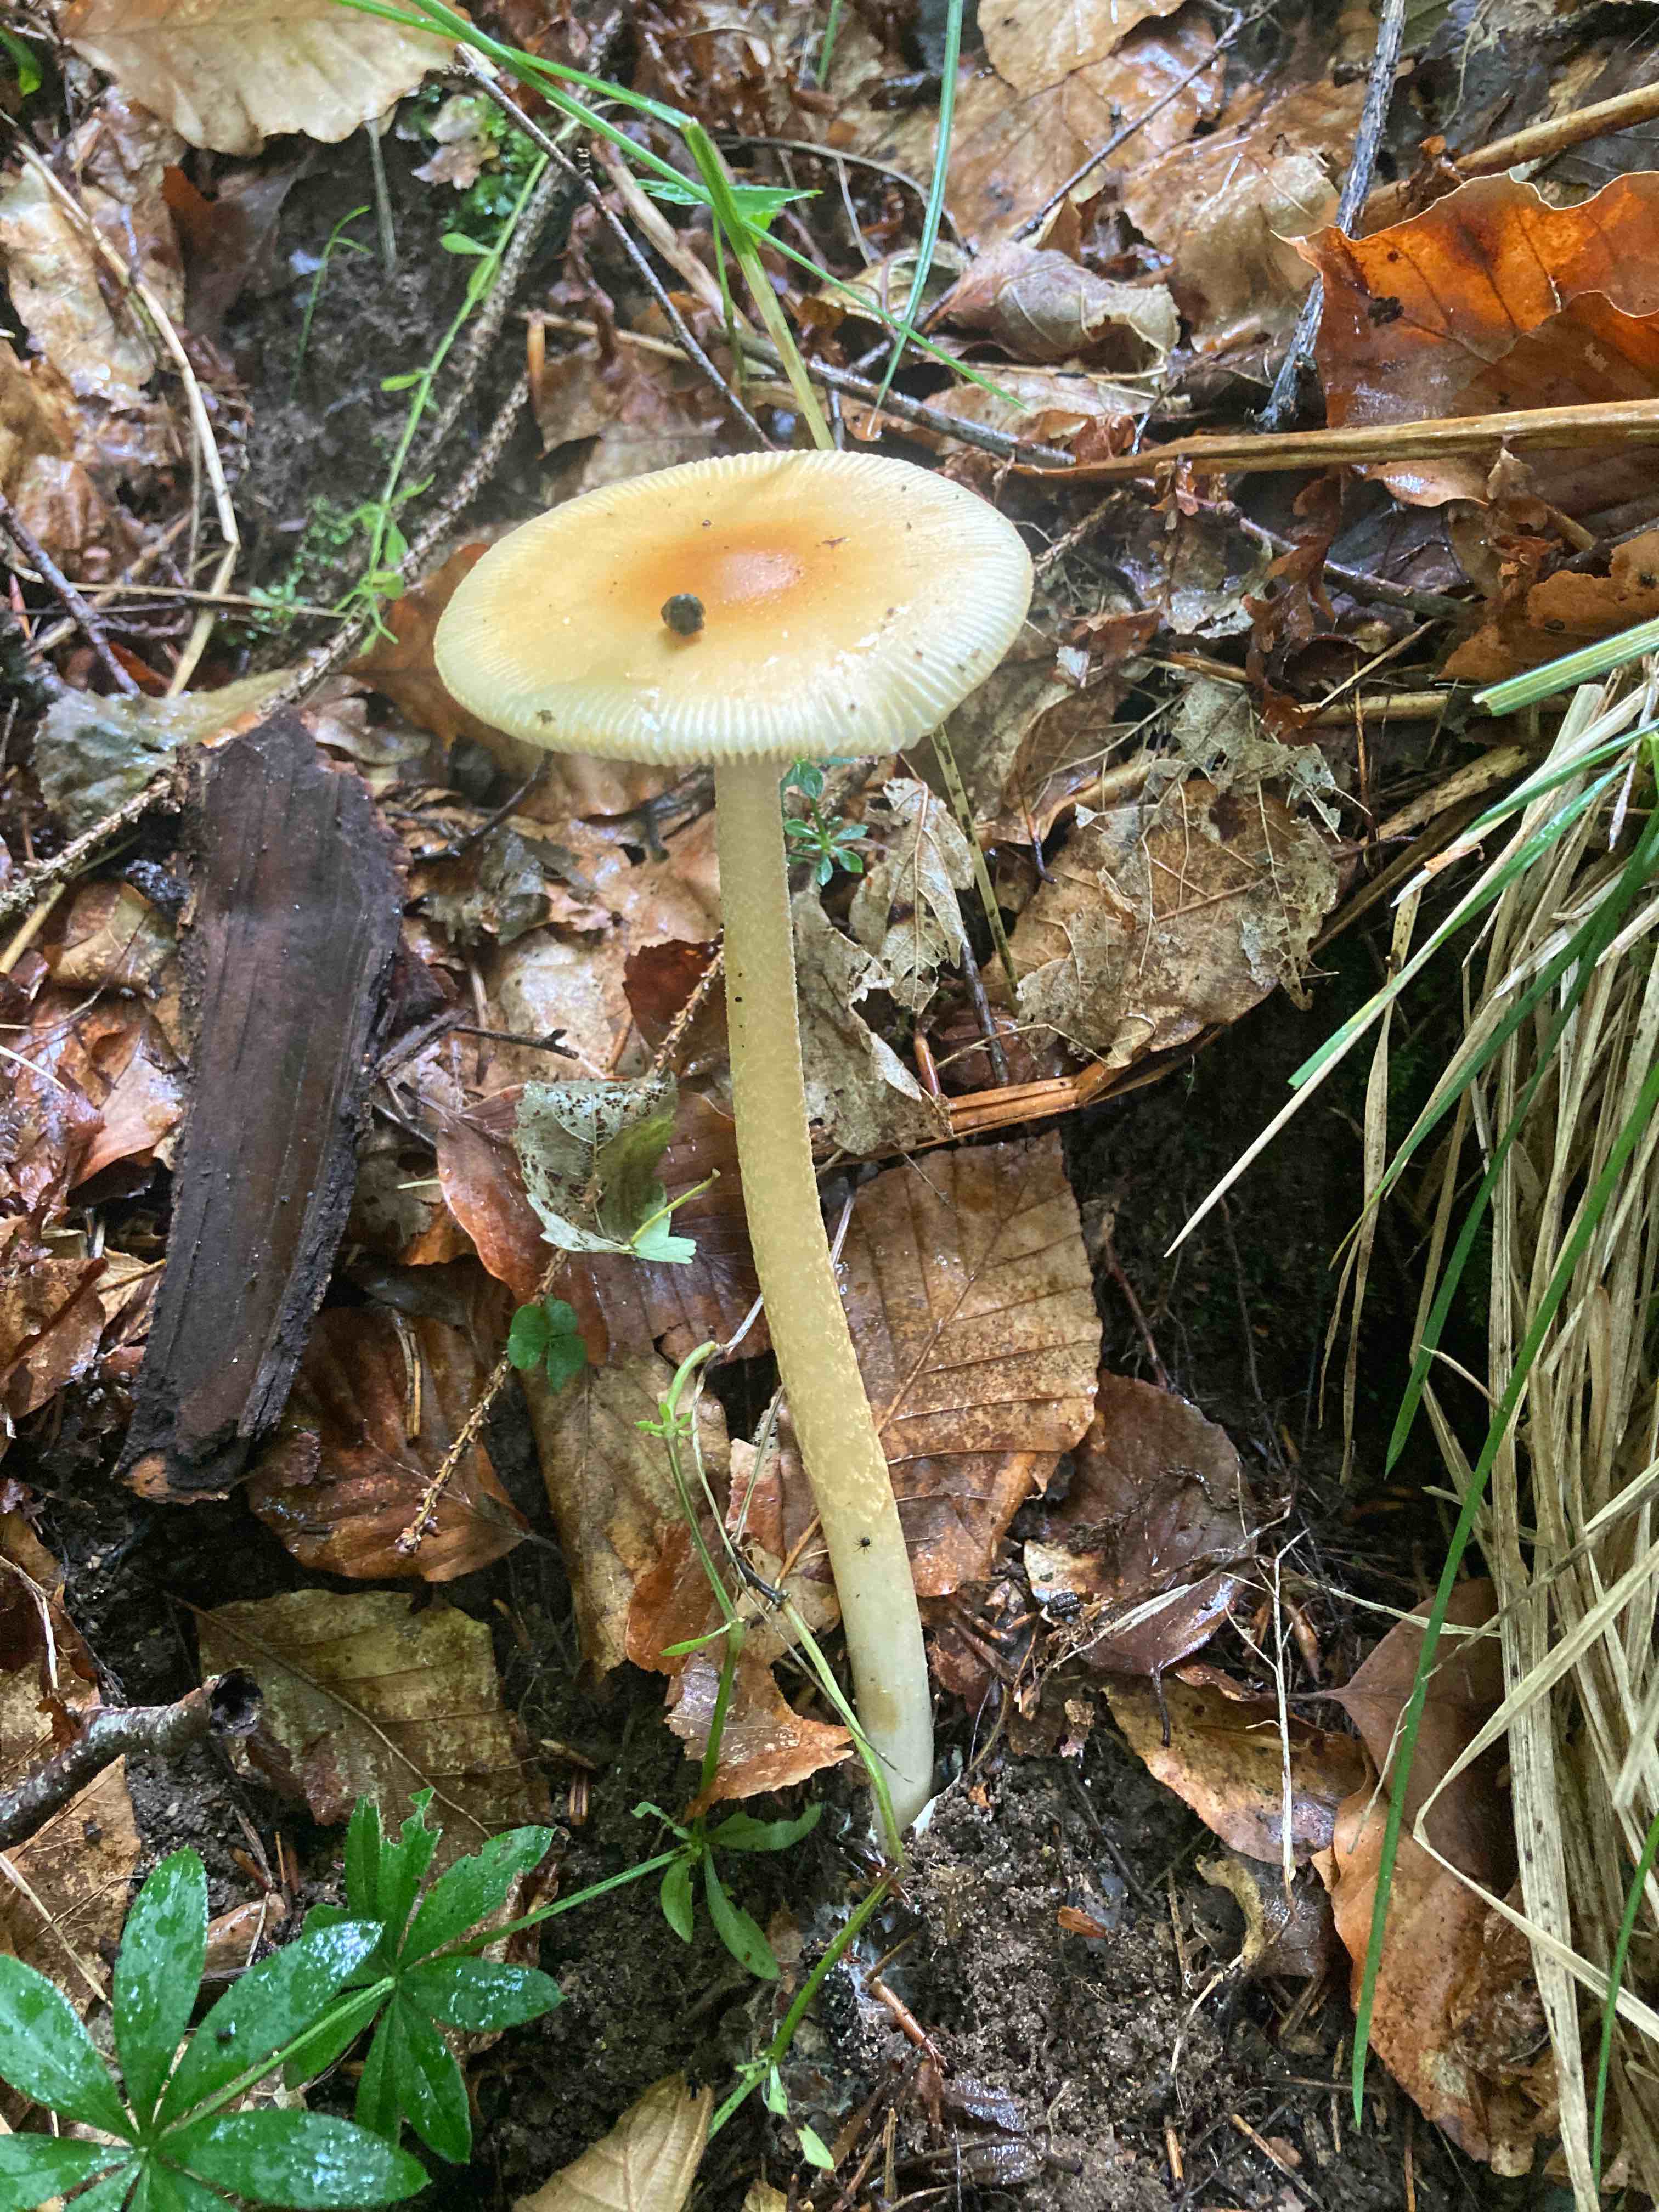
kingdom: Fungi
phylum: Basidiomycota
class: Agaricomycetes
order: Agaricales
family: Amanitaceae
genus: Amanita
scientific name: Amanita crocea
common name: gylden kam-fluesvamp
